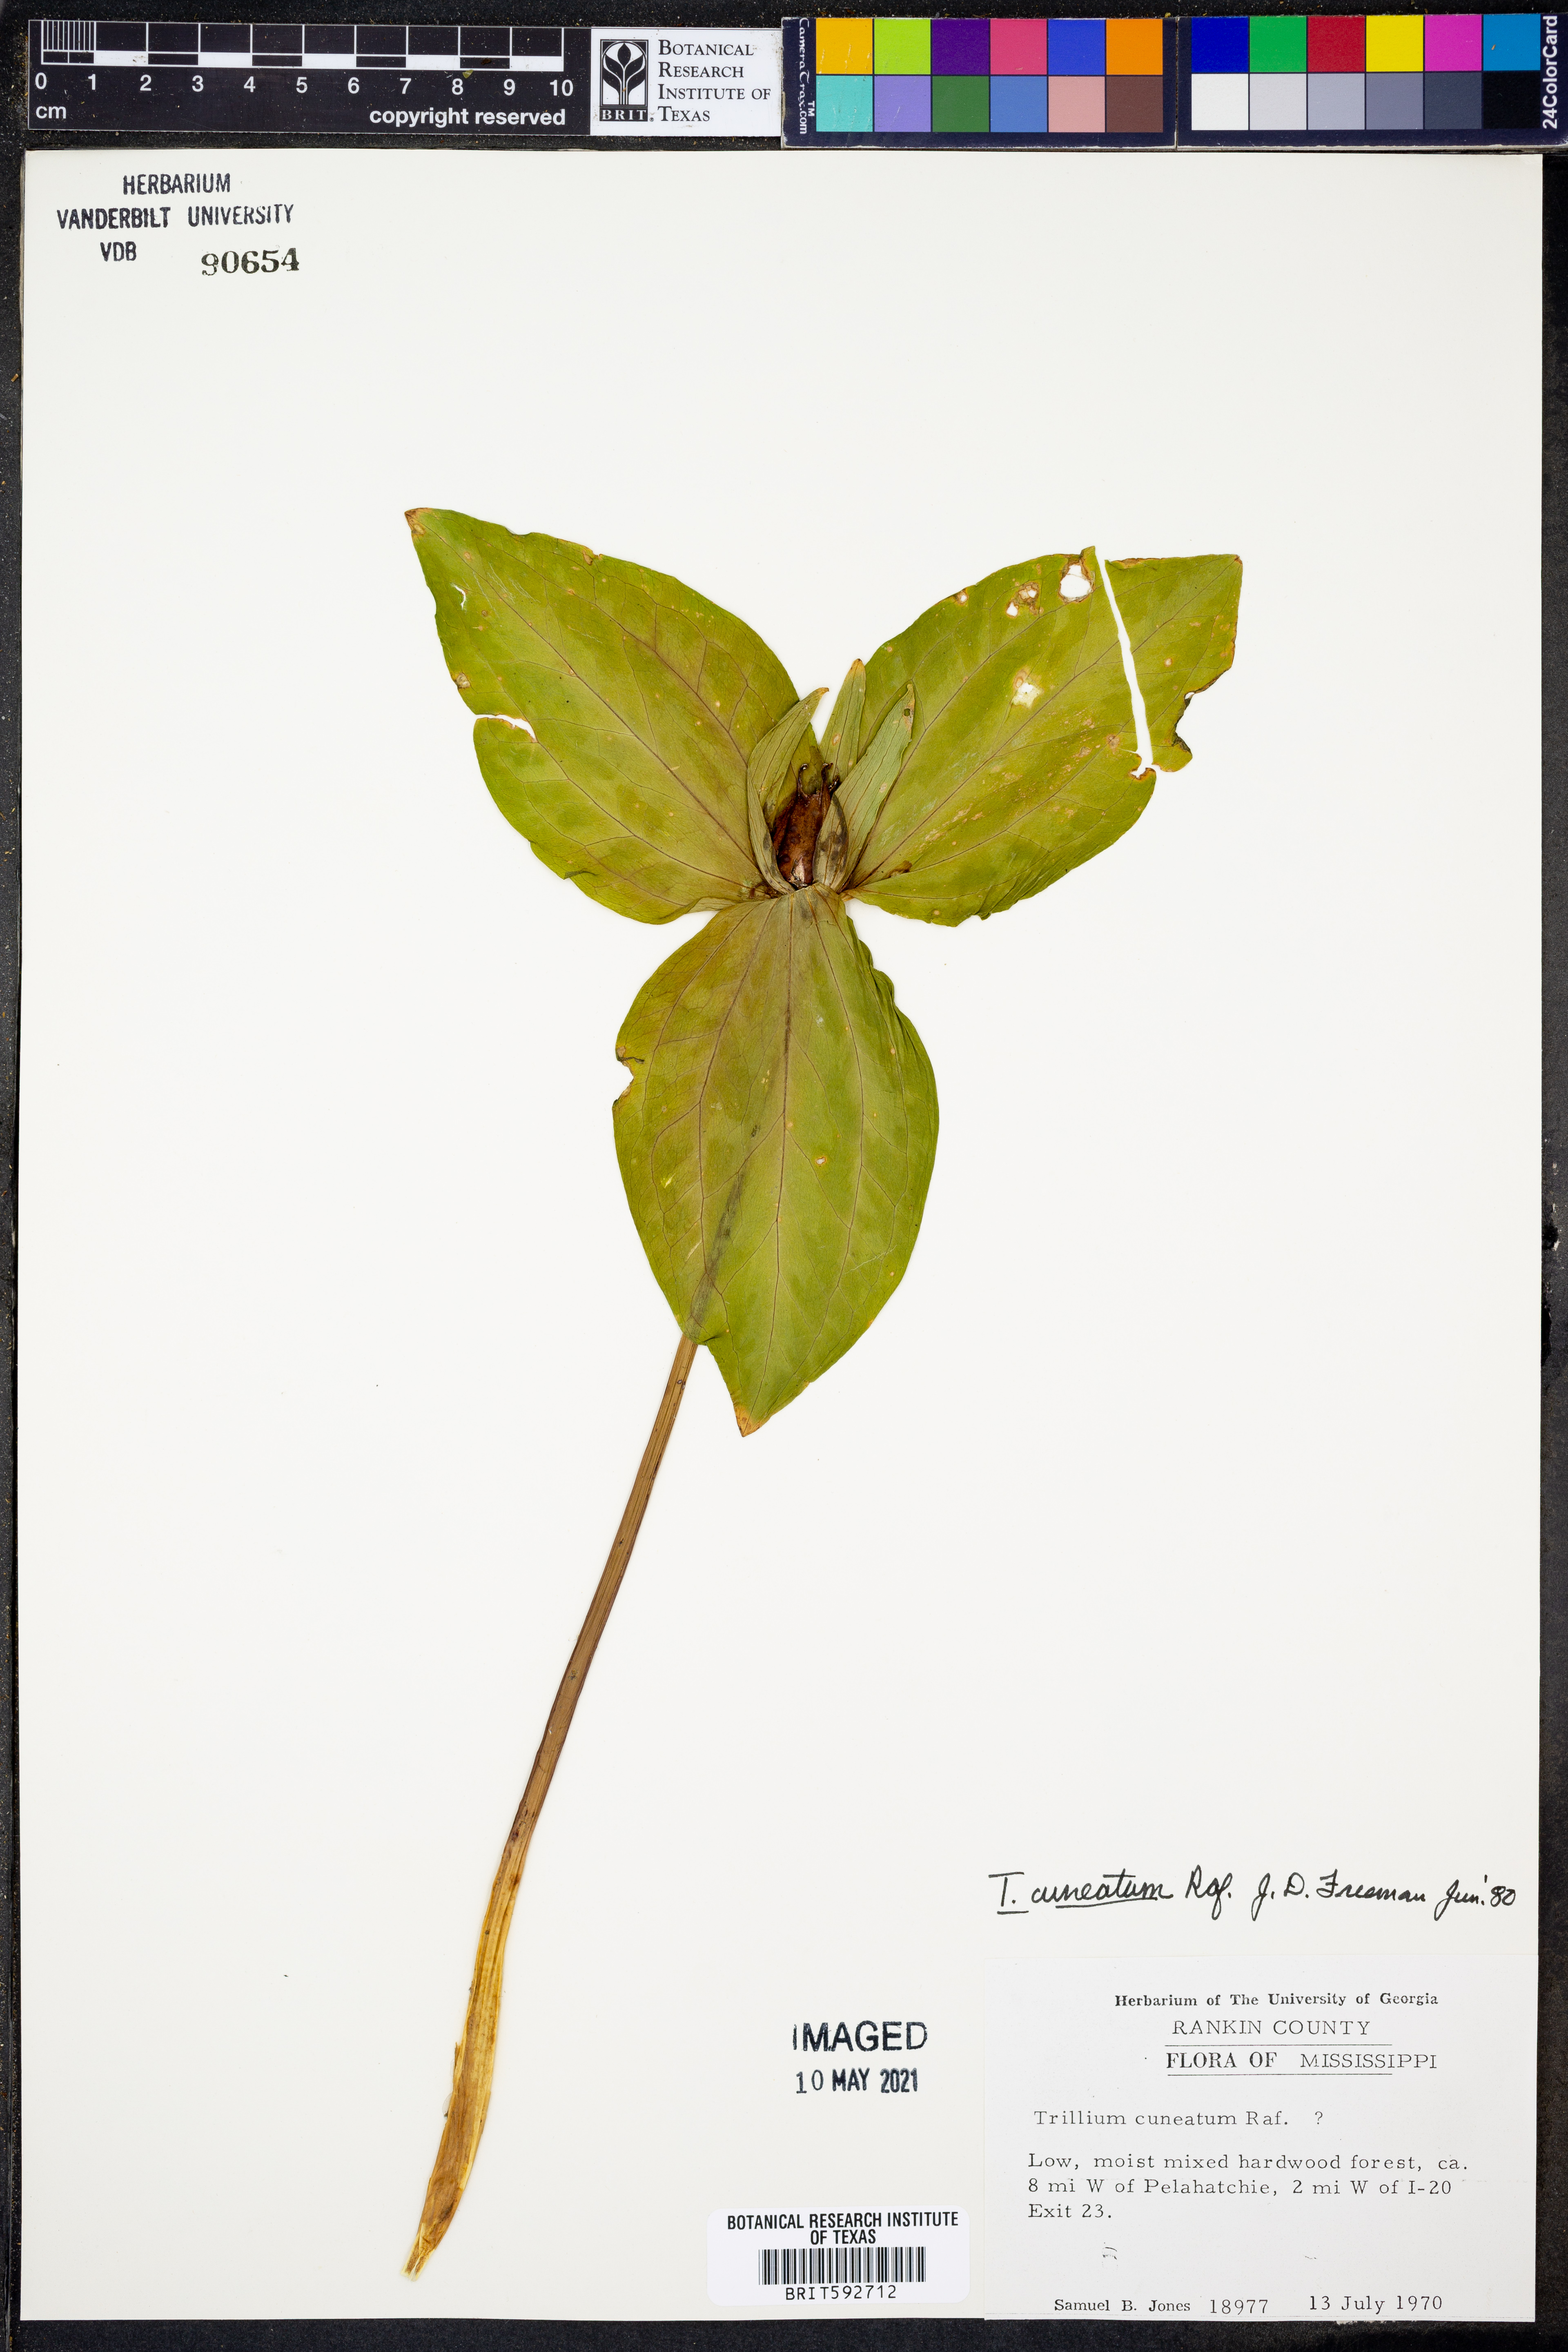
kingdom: Plantae
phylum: Tracheophyta
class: Liliopsida
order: Liliales
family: Melanthiaceae
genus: Trillium
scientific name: Trillium cuneatum
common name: Cuneate trillium
